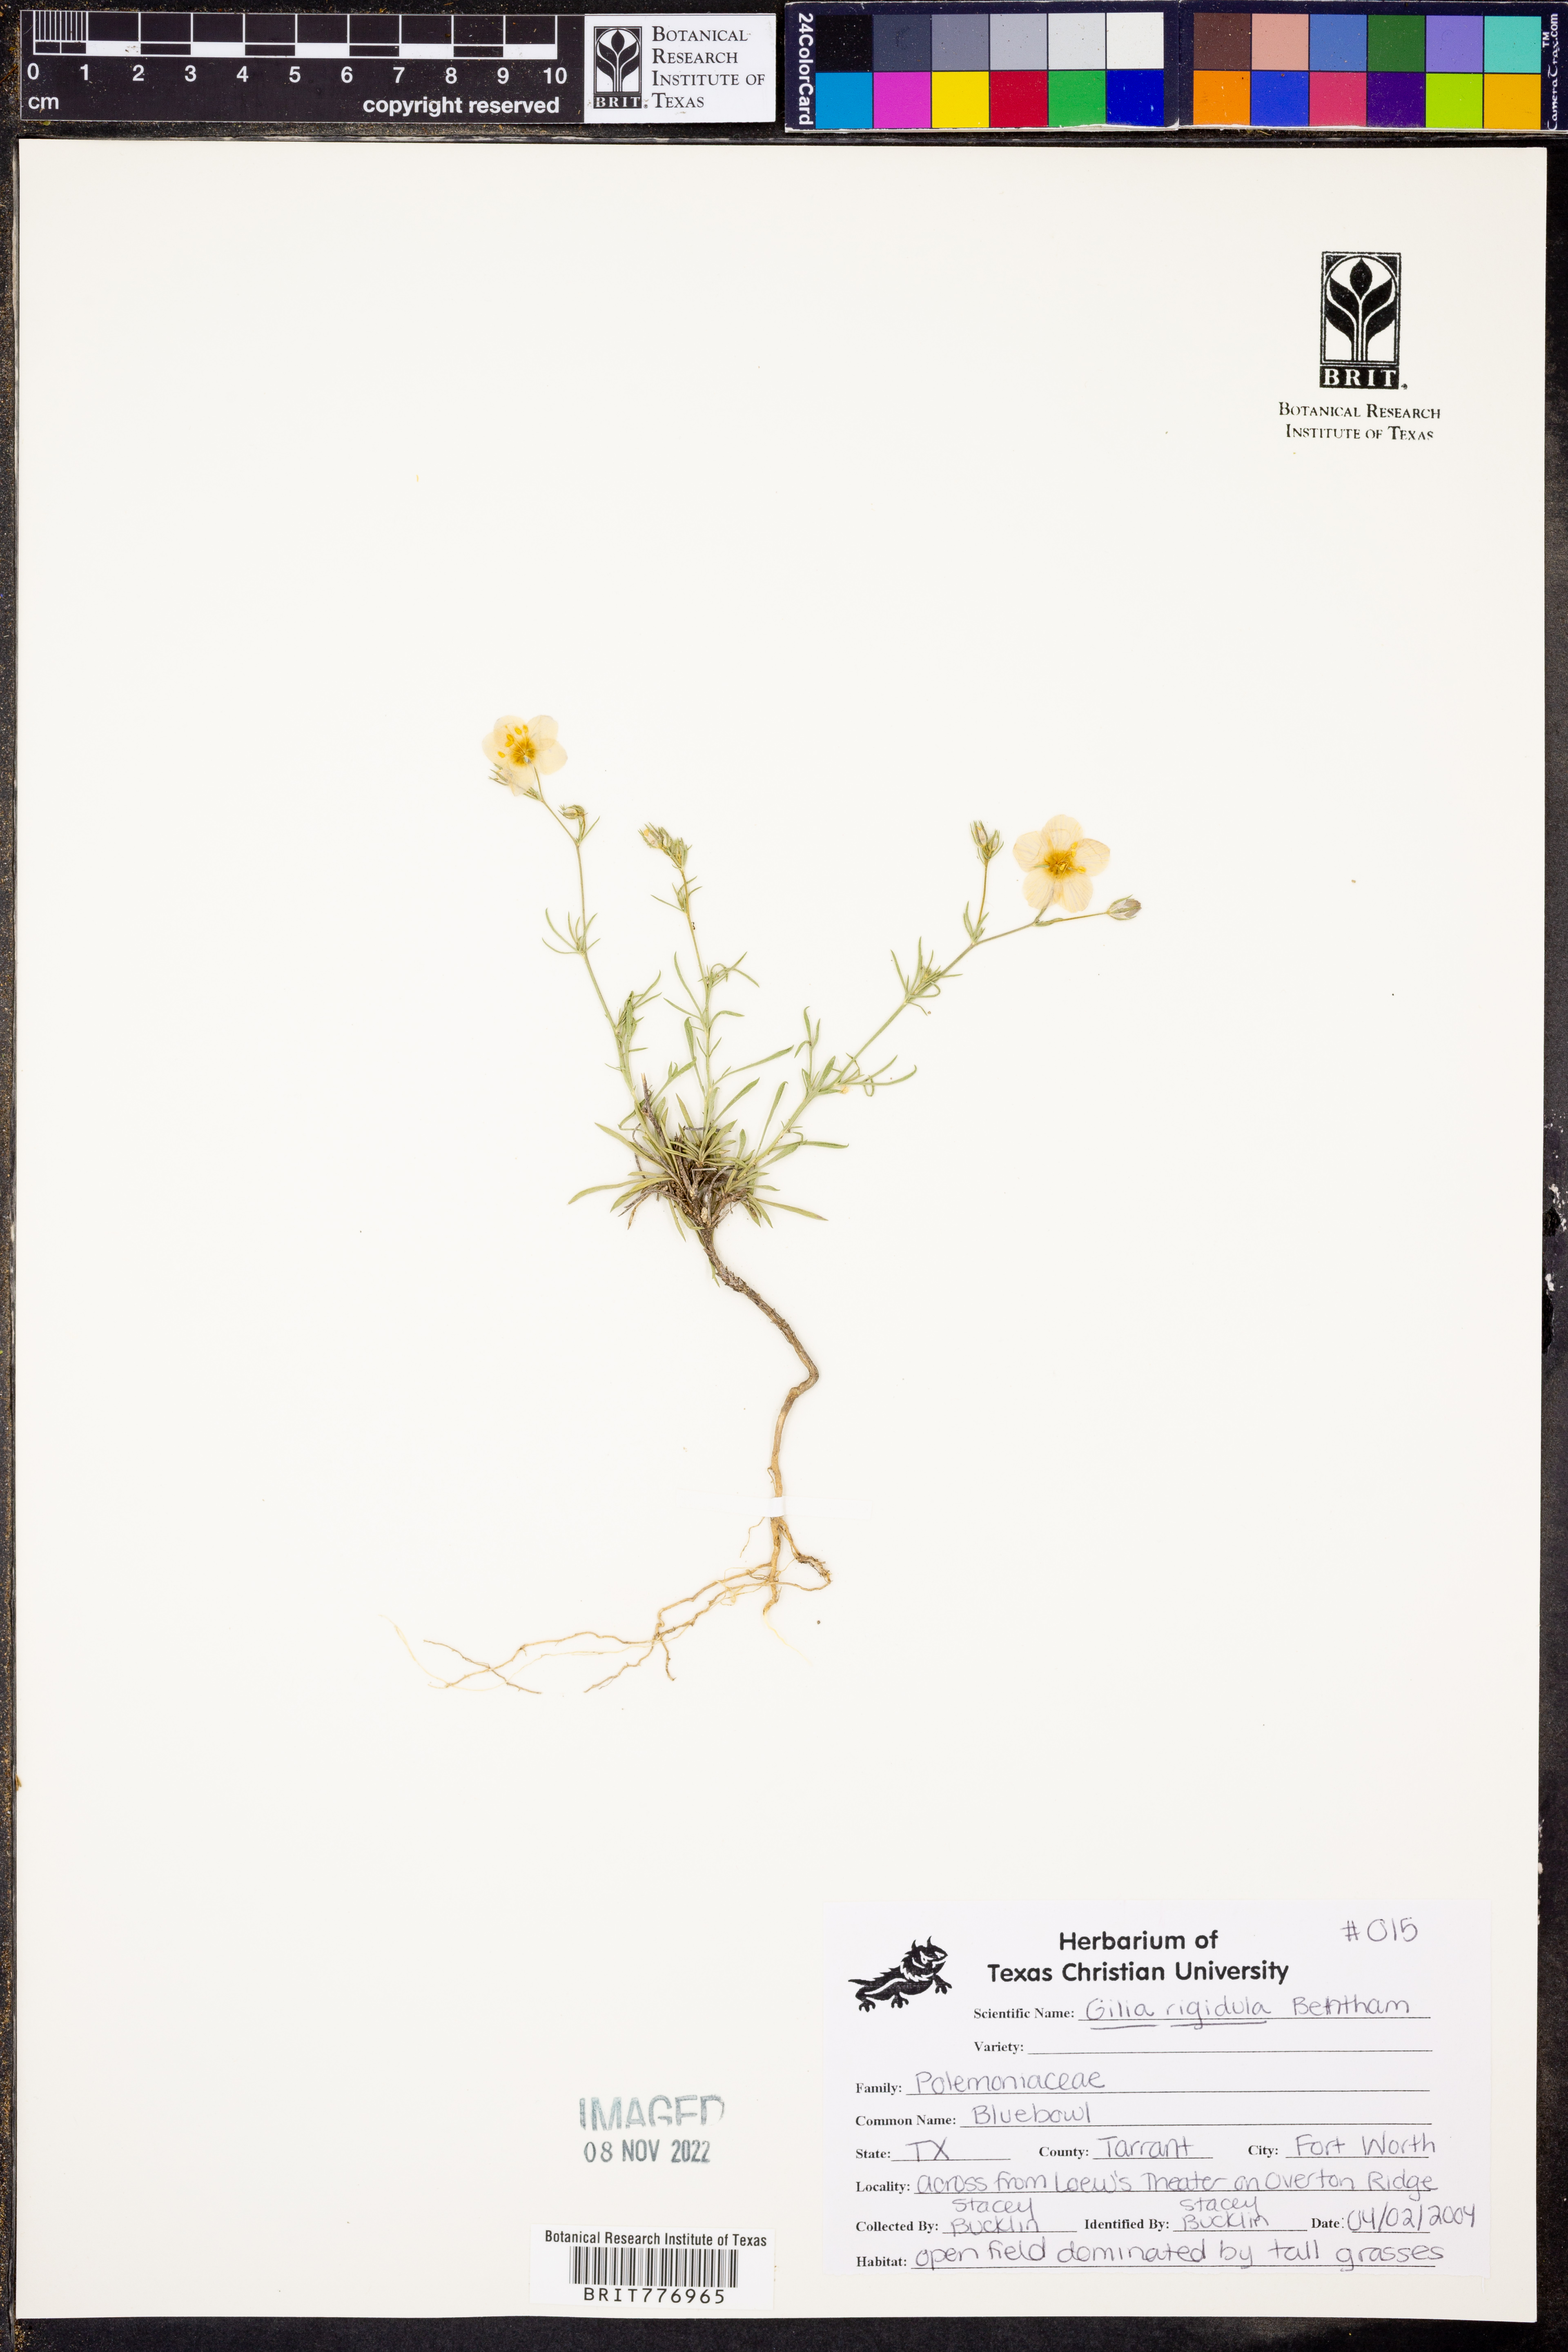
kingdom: Plantae
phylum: Tracheophyta
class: Magnoliopsida
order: Ericales
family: Polemoniaceae
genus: Giliastrum
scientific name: Giliastrum rigidulum
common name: Bluebowls
